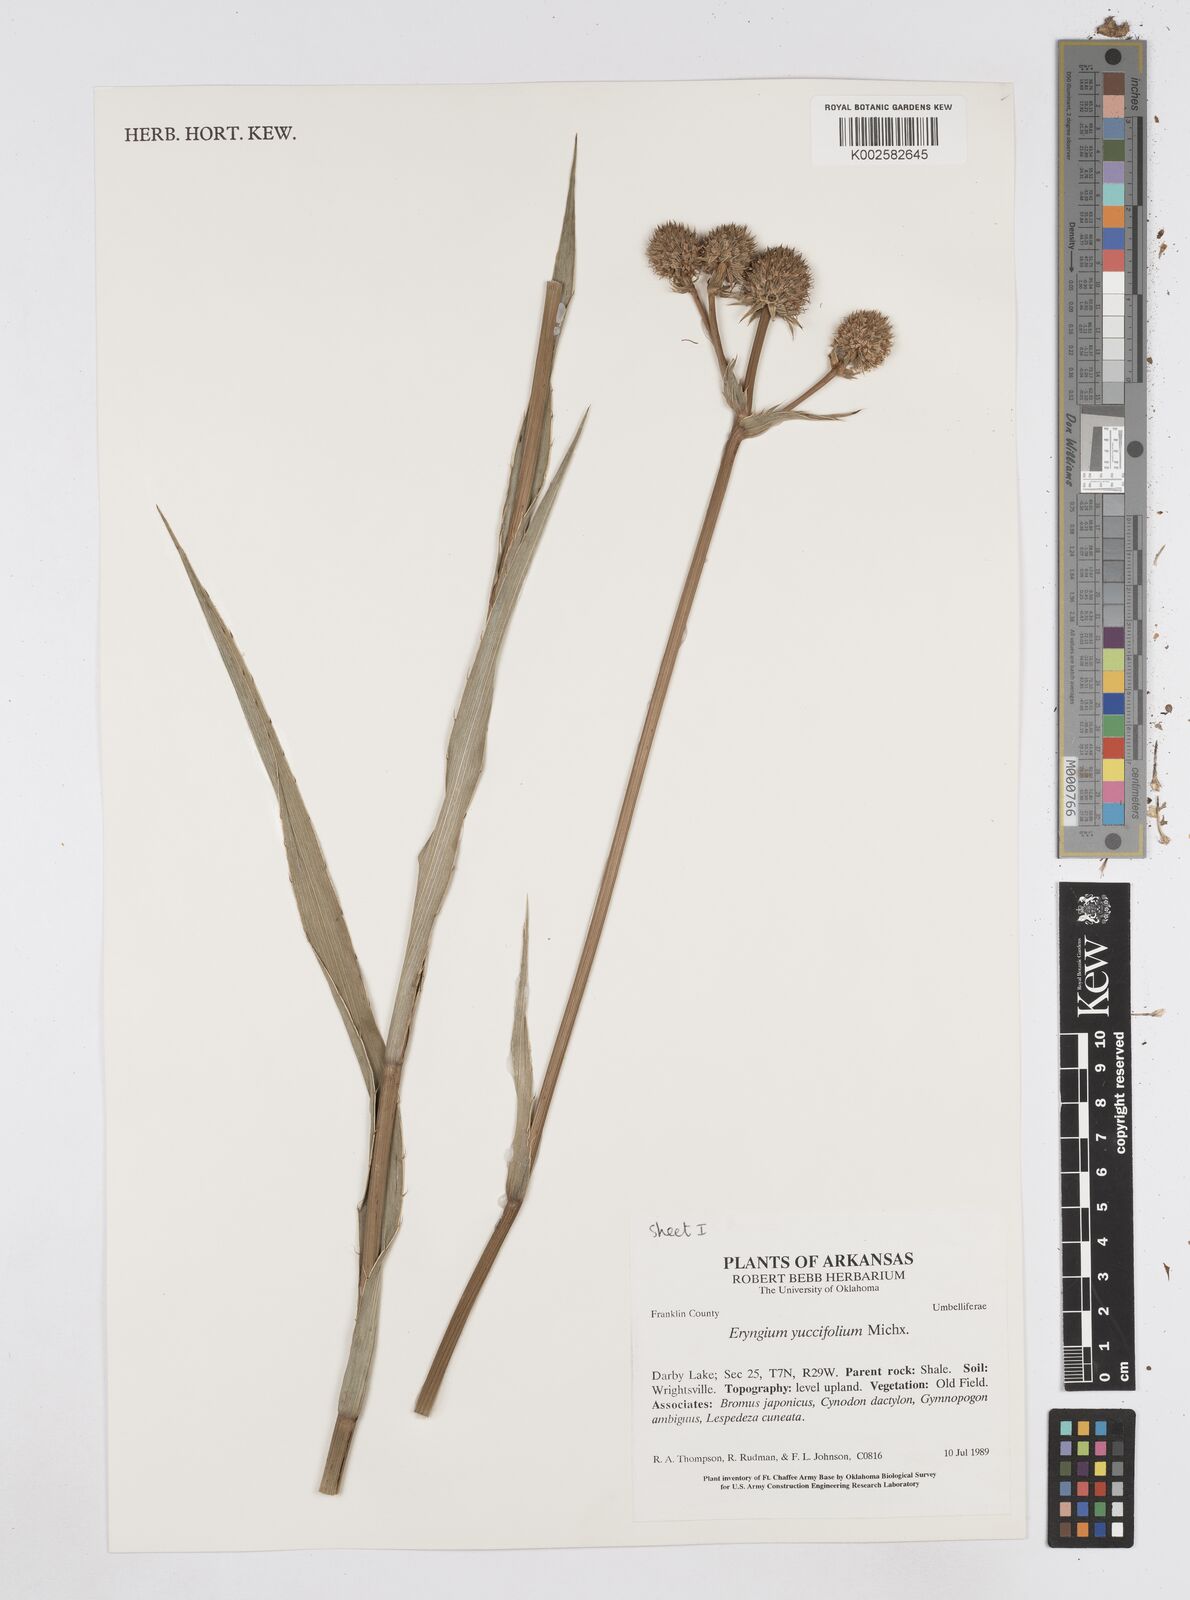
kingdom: Plantae
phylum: Tracheophyta
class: Magnoliopsida
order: Apiales
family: Apiaceae
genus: Eryngium
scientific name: Eryngium yuccifolium
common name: Button eryngo
